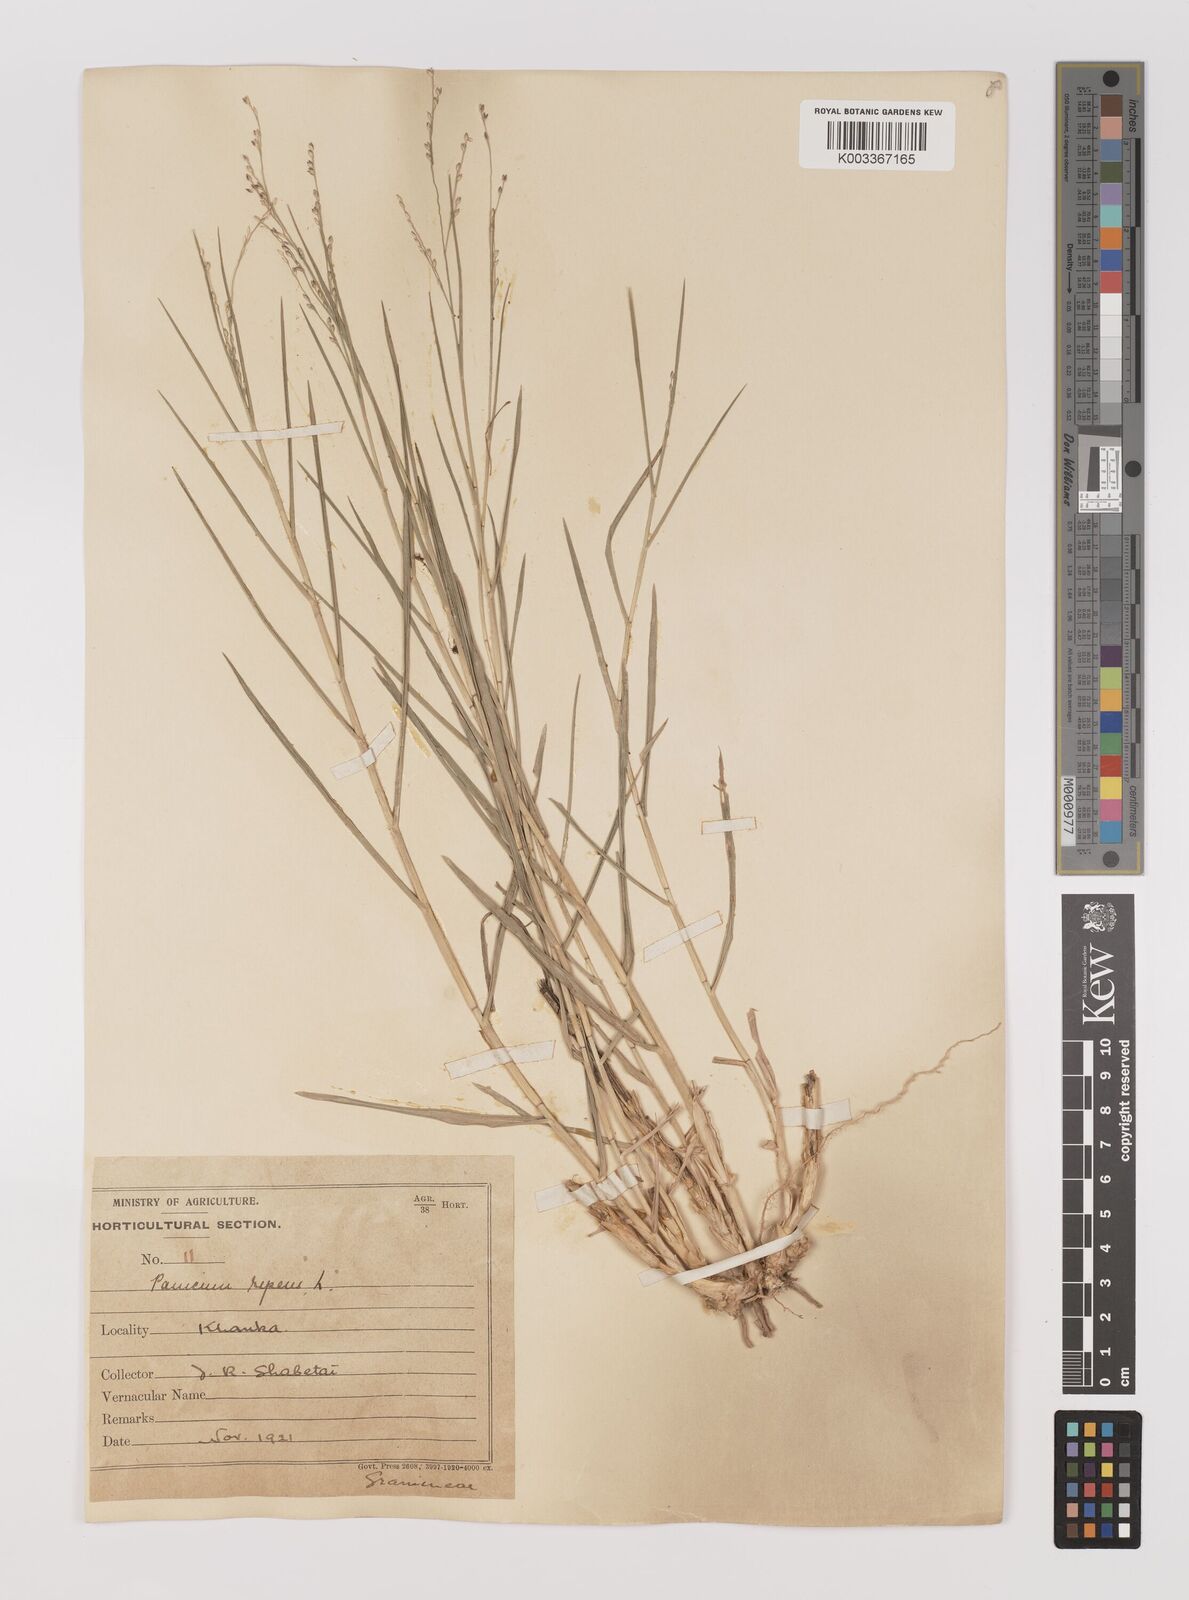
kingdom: Plantae
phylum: Tracheophyta
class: Liliopsida
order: Poales
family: Poaceae
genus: Panicum
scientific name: Panicum repens
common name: Torpedo grass
